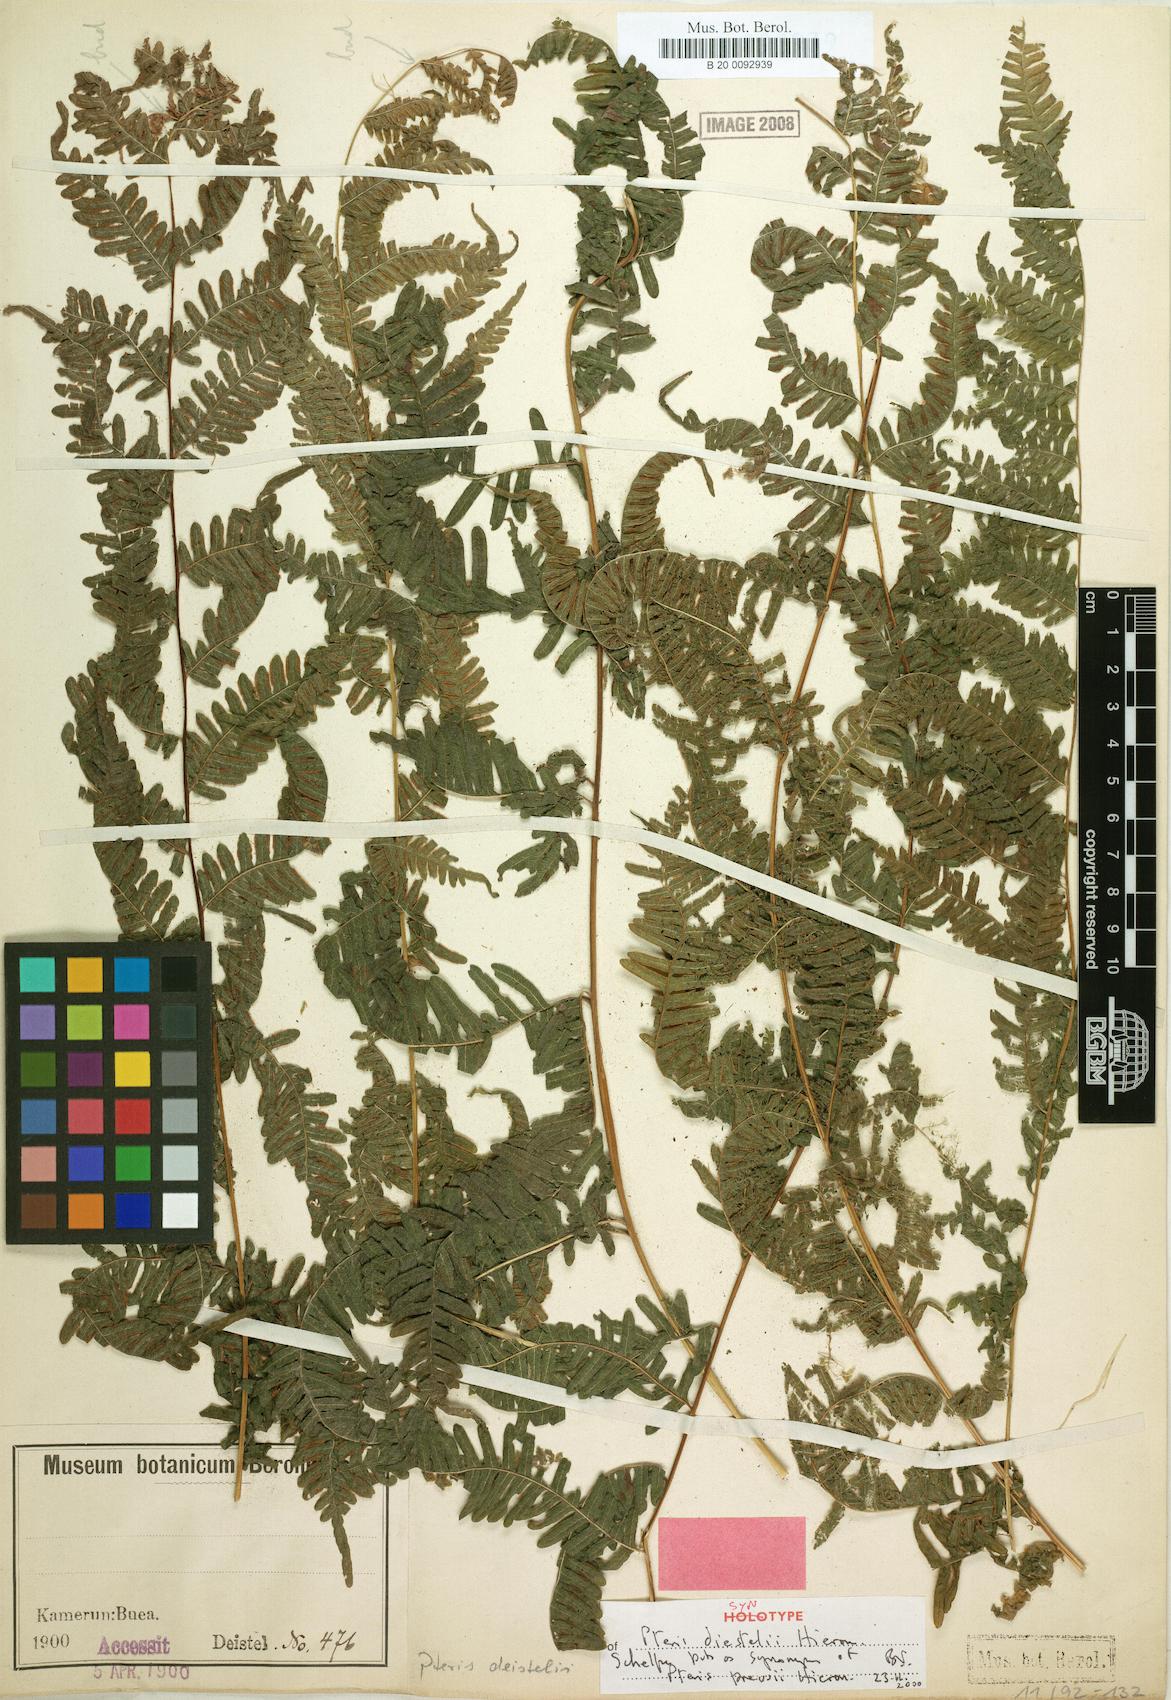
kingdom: Plantae
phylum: Tracheophyta
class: Polypodiopsida
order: Polypodiales
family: Pteridaceae
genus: Pteris
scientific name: Pteris preussii
